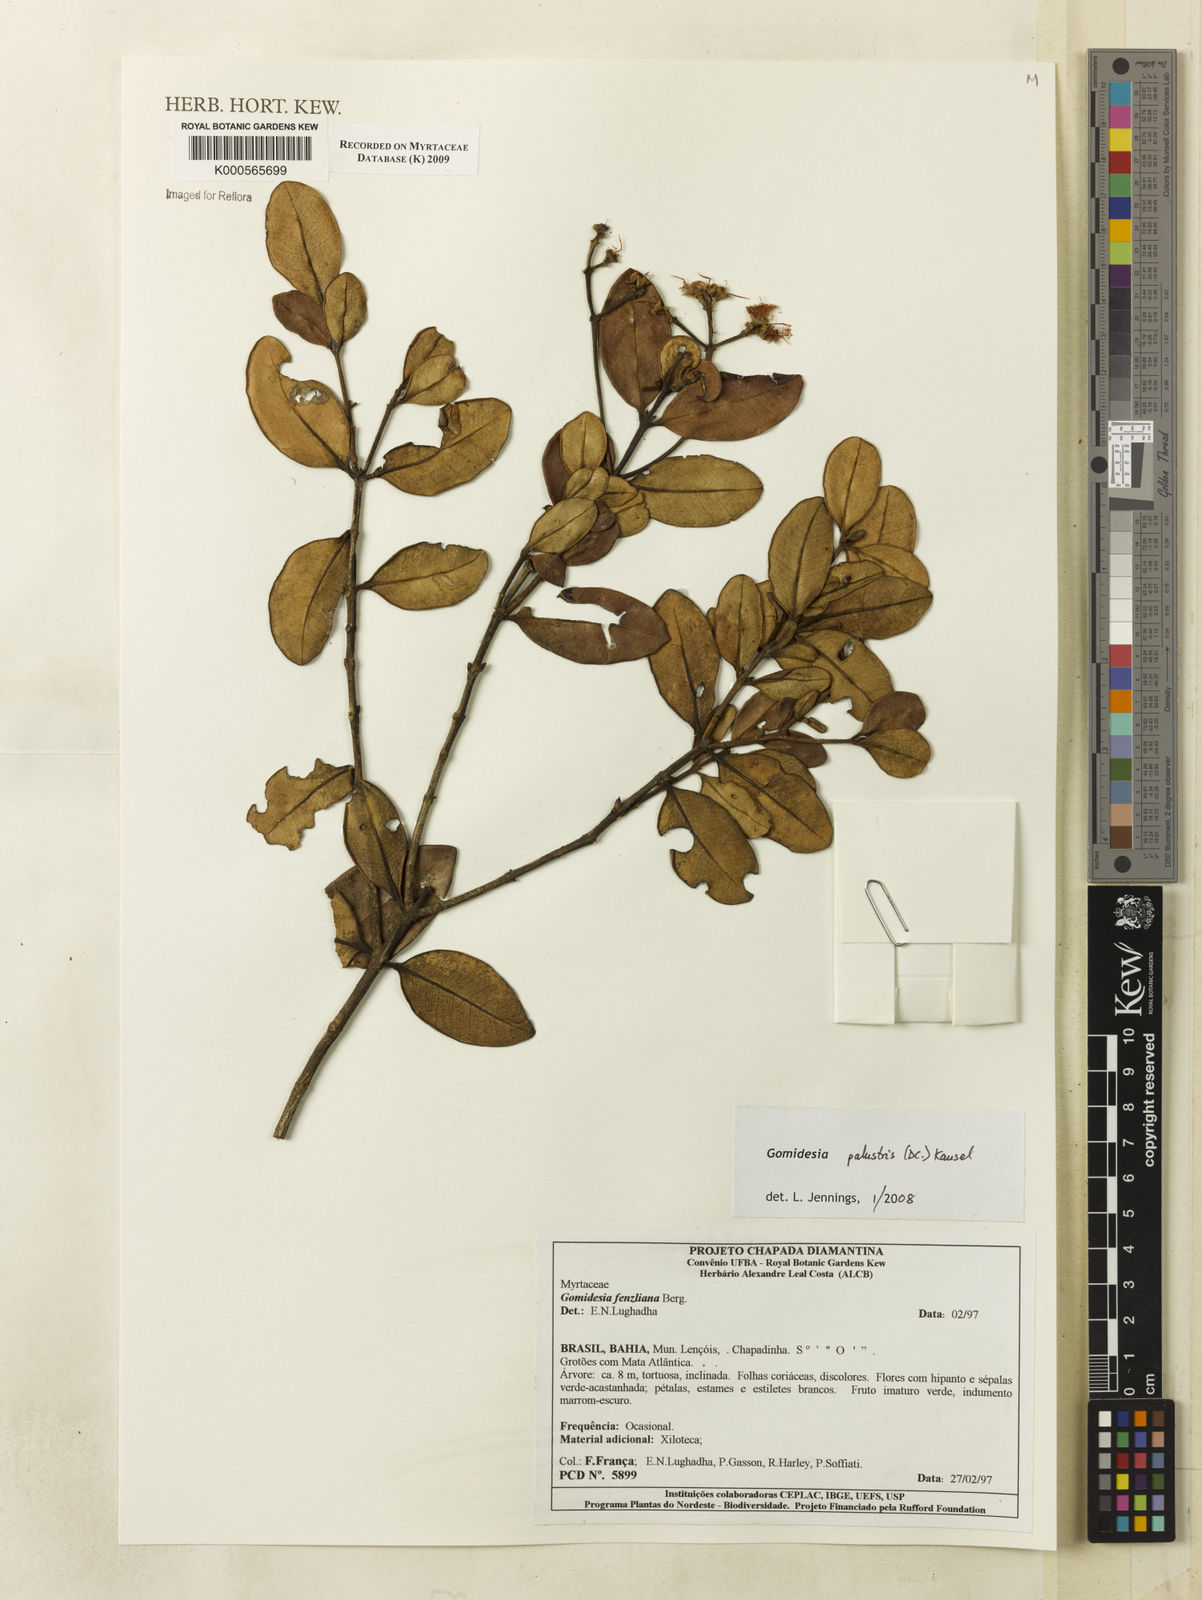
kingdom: Plantae
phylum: Tracheophyta
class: Magnoliopsida
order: Myrtales
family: Myrtaceae
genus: Myrcia
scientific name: Myrcia ilheosensis
